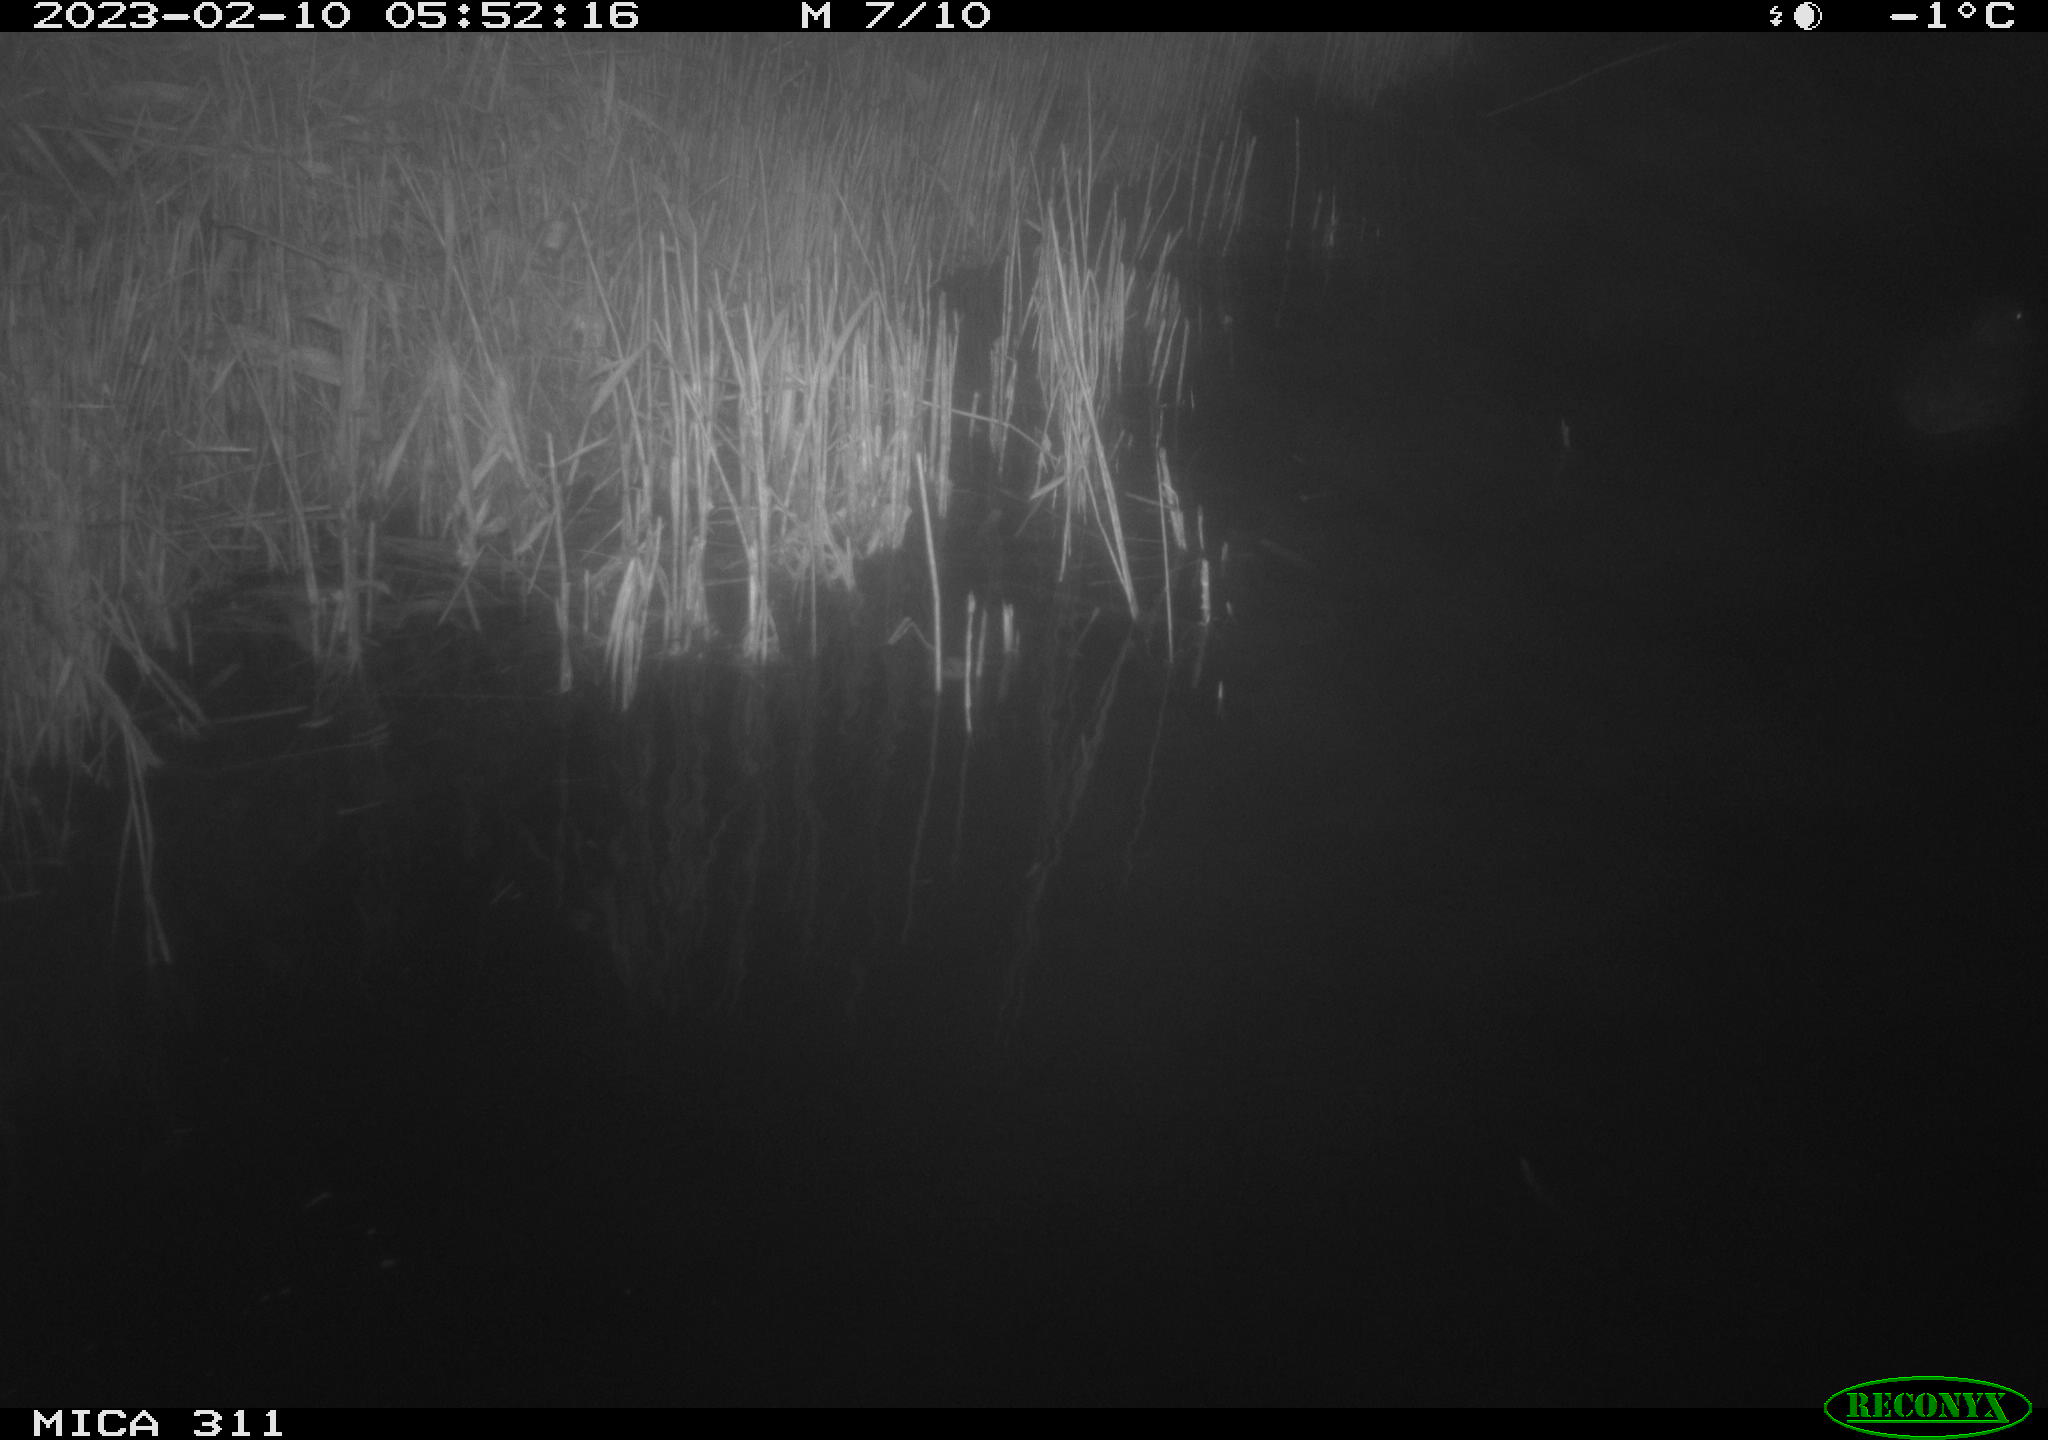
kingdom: Animalia
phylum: Chordata
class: Aves
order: Anseriformes
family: Anatidae
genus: Anas
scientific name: Anas
